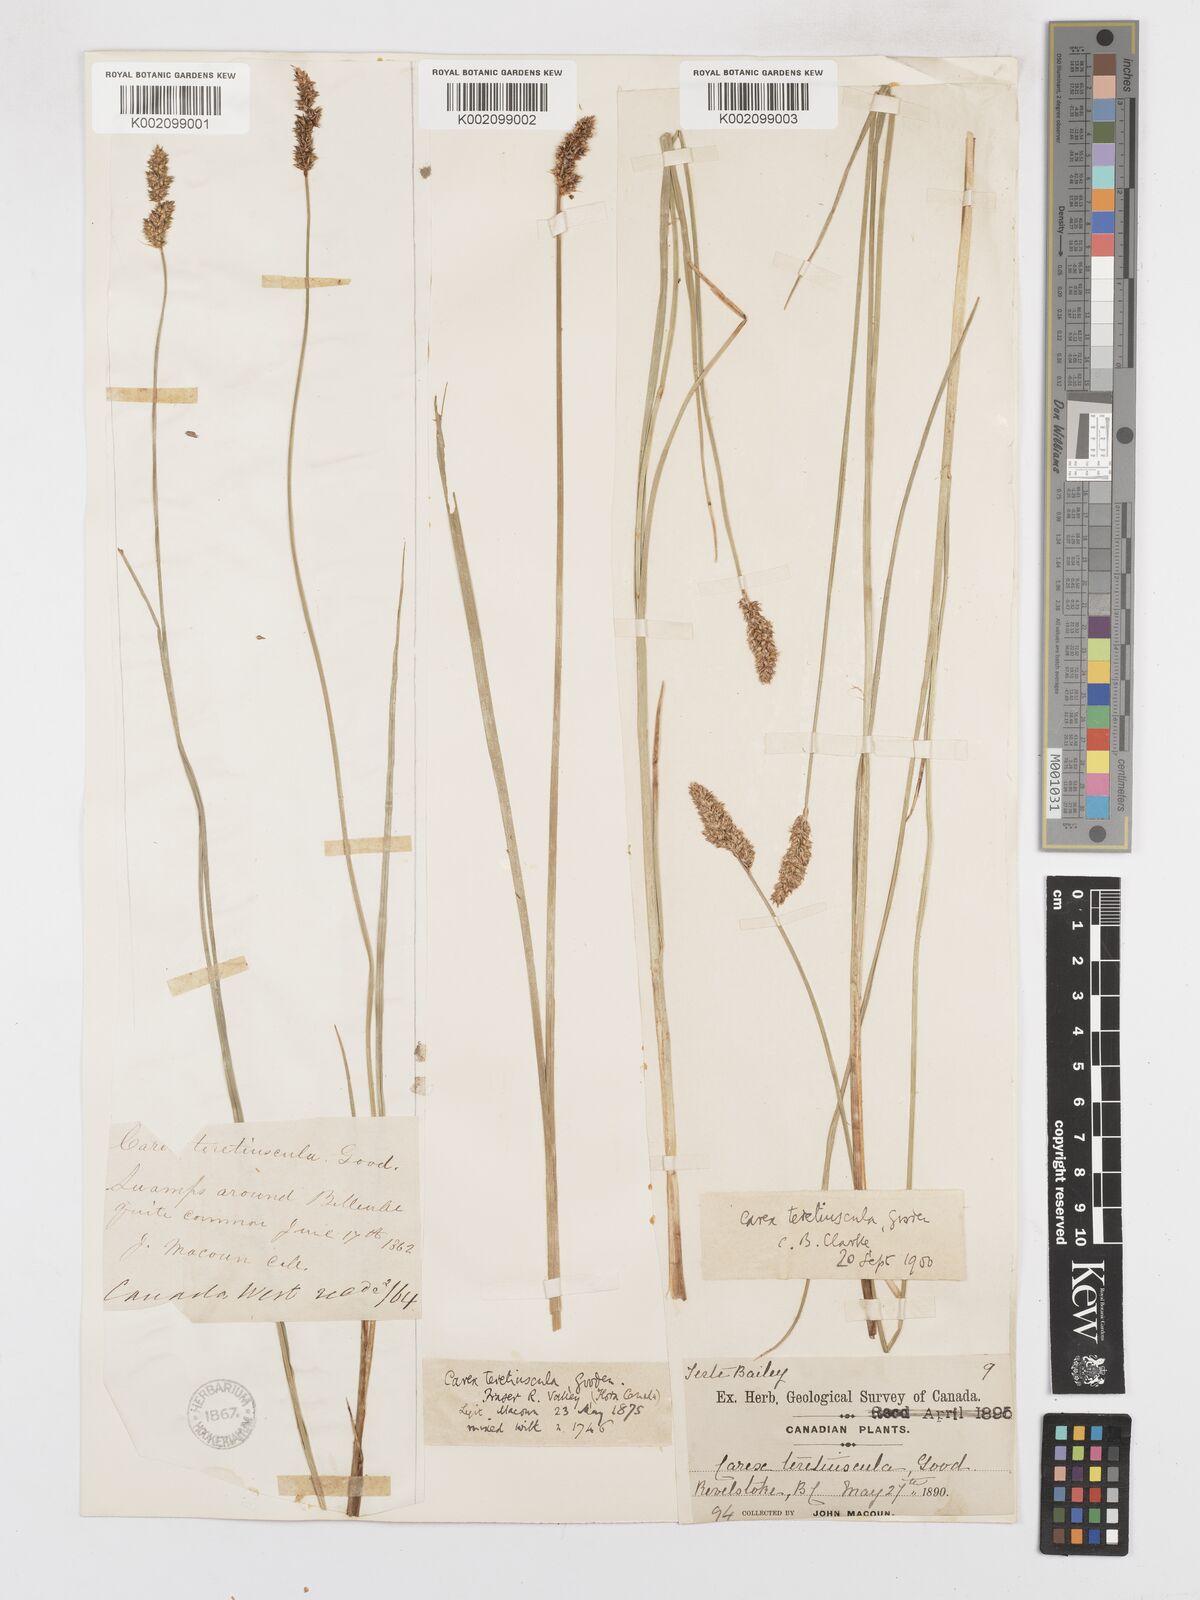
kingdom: Plantae
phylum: Tracheophyta
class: Liliopsida
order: Poales
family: Cyperaceae
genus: Carex
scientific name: Carex diandra
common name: Lesser tussock-sedge
